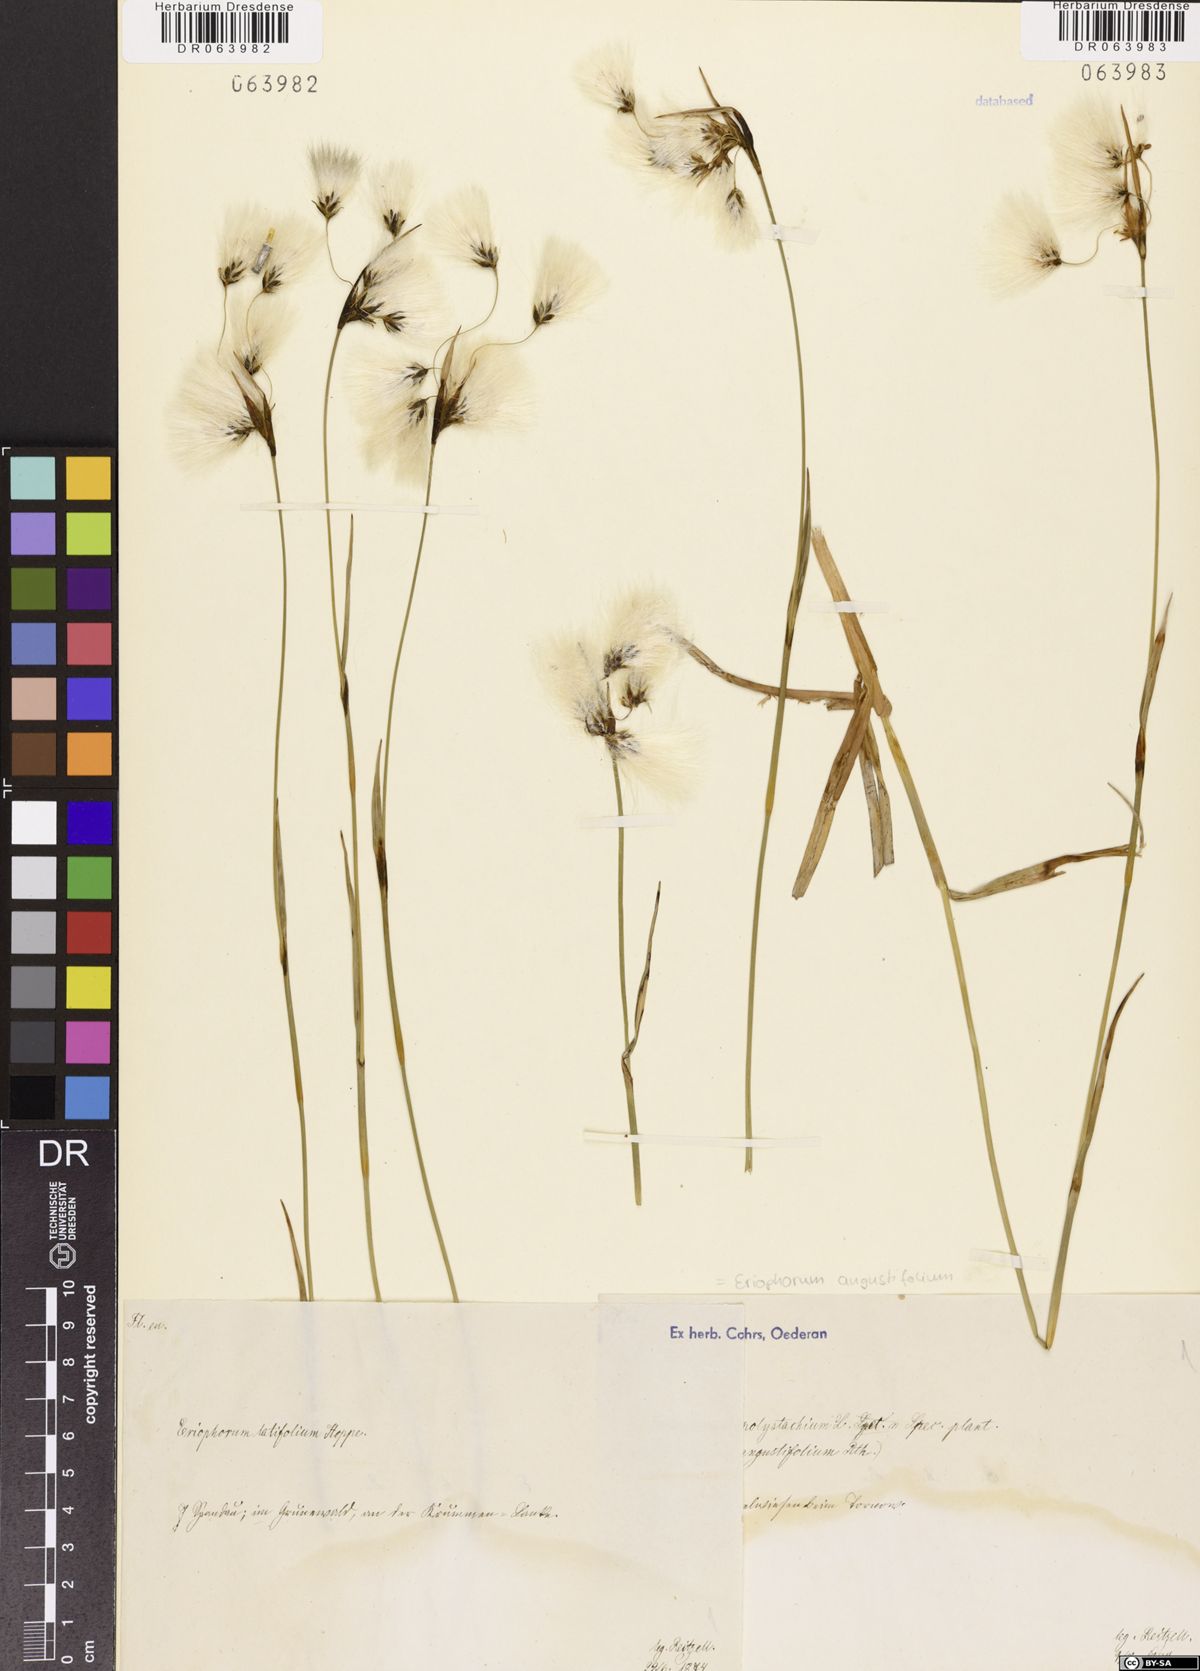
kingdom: Plantae
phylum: Tracheophyta
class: Liliopsida
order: Poales
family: Cyperaceae
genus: Eriophorum
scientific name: Eriophorum angustifolium
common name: Common cottongrass
